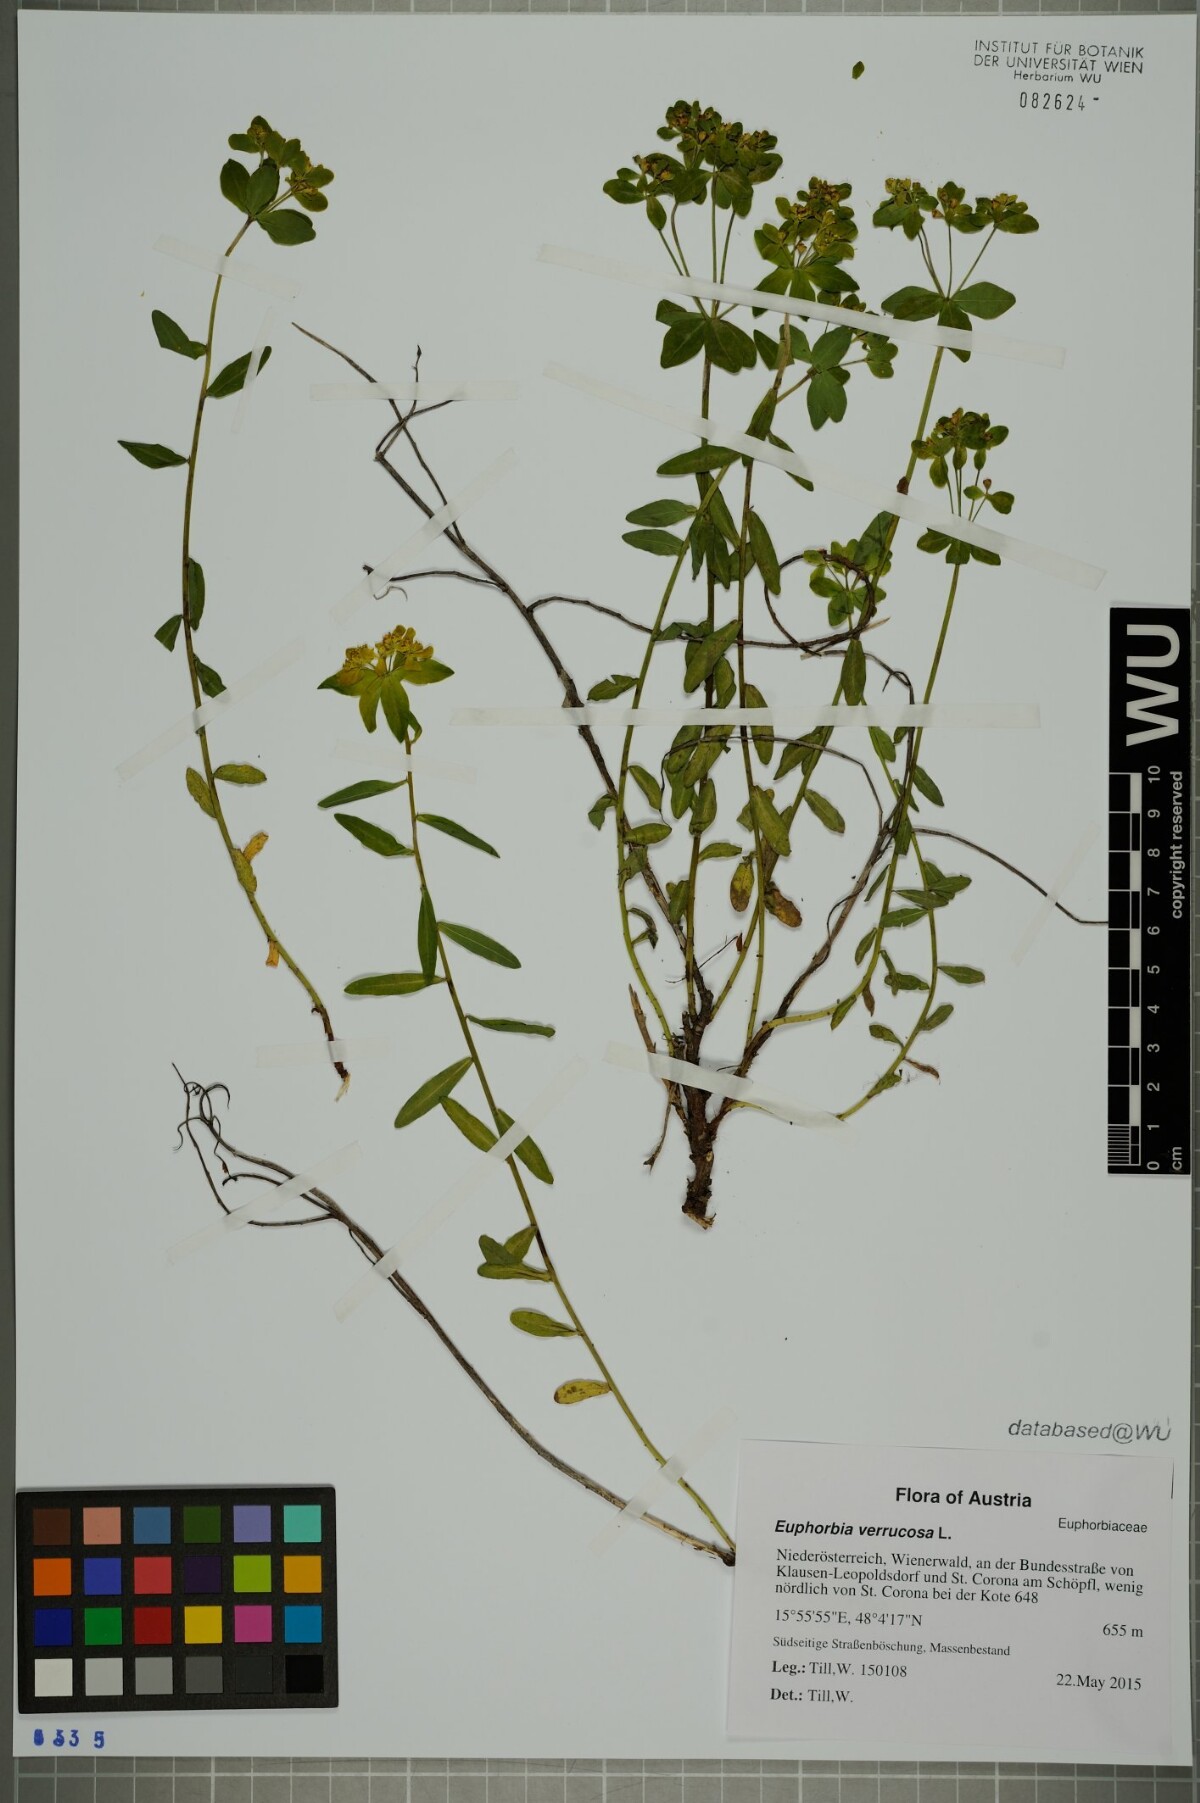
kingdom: Plantae
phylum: Tracheophyta
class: Magnoliopsida
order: Malpighiales
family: Euphorbiaceae
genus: Euphorbia
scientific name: Euphorbia verrucosa
